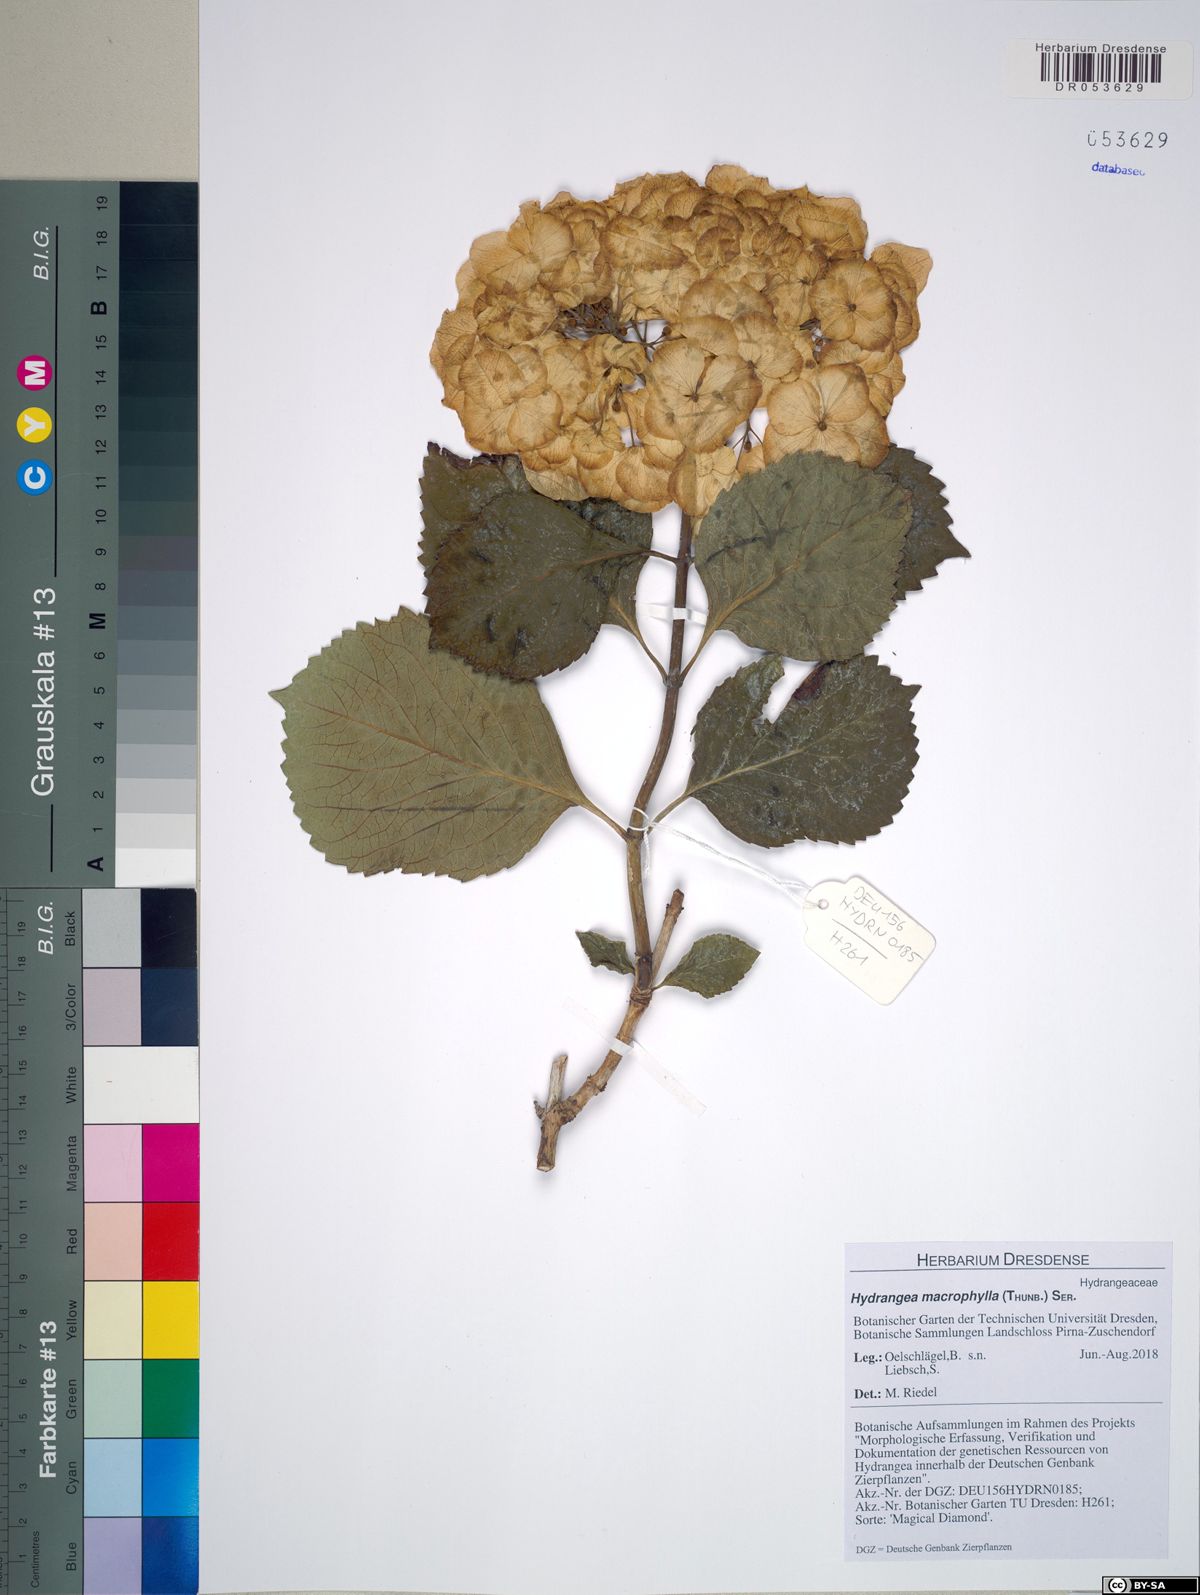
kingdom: Plantae
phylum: Tracheophyta
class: Magnoliopsida
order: Cornales
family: Hydrangeaceae
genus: Hydrangea
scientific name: Hydrangea macrophylla
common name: Hydrangea
